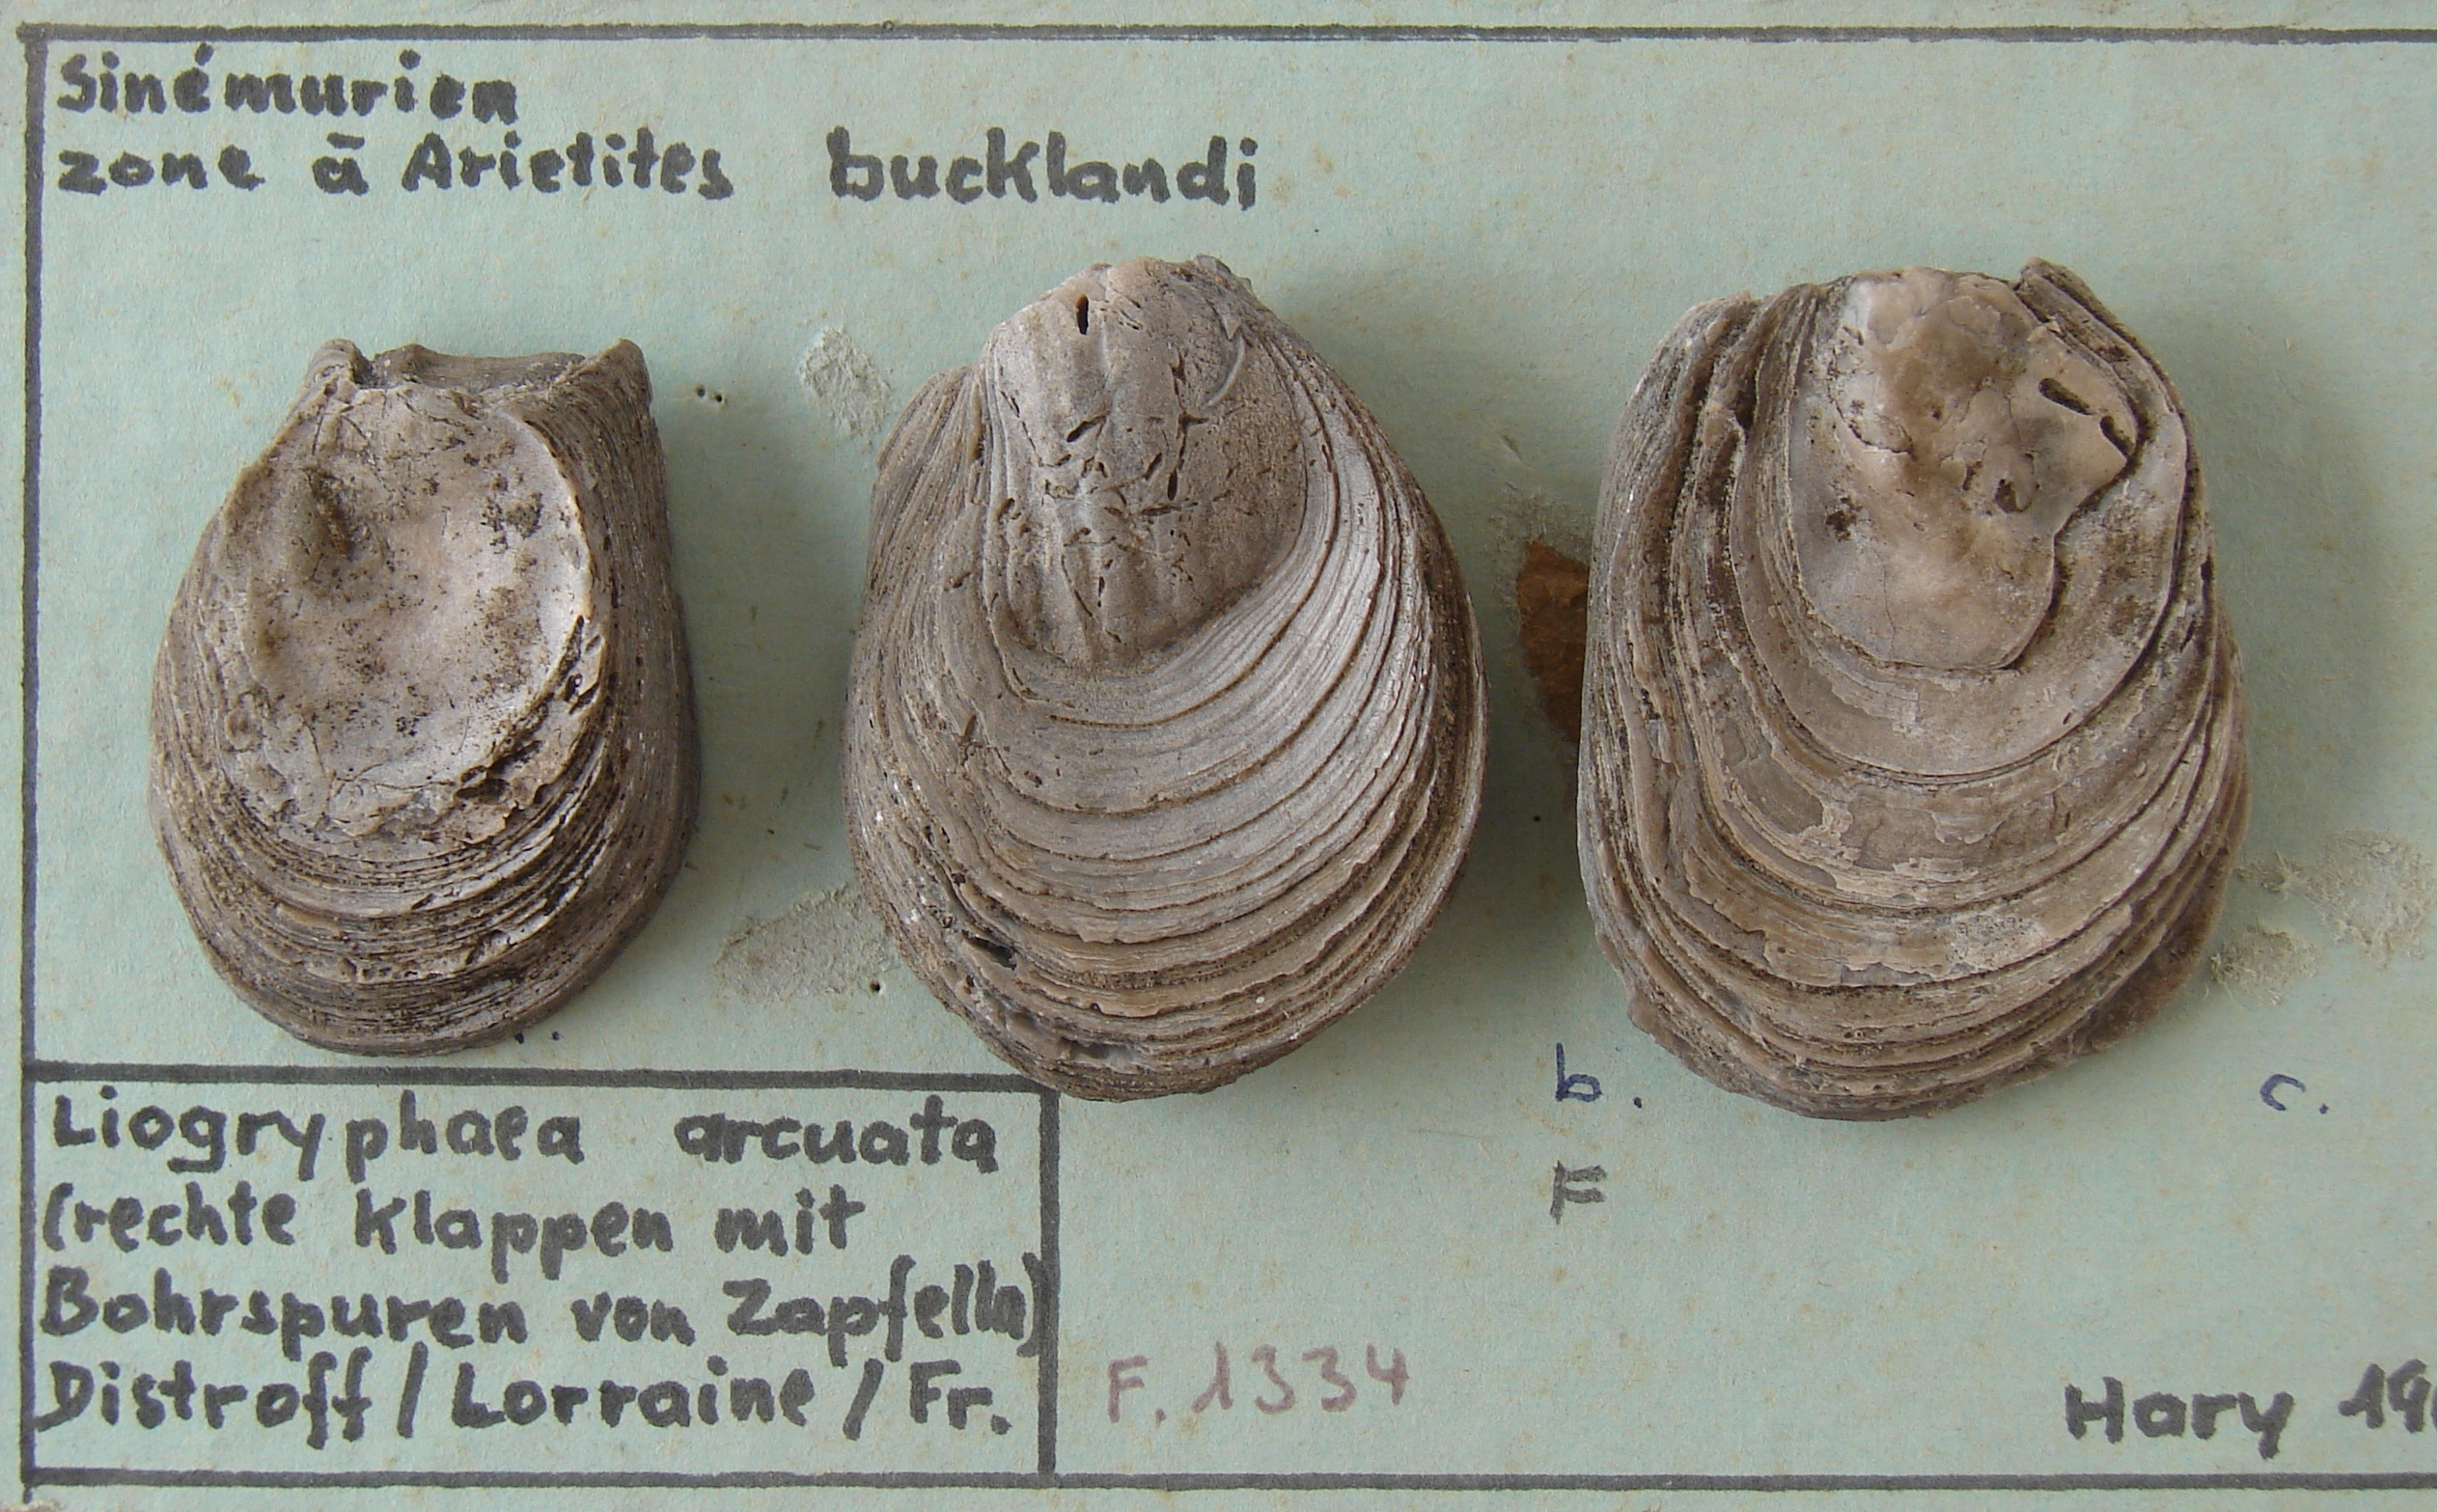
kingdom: Animalia
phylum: Mollusca
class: Bivalvia
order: Ostreida
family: Gryphaeidae
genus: Gryphaea
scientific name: Gryphaea
